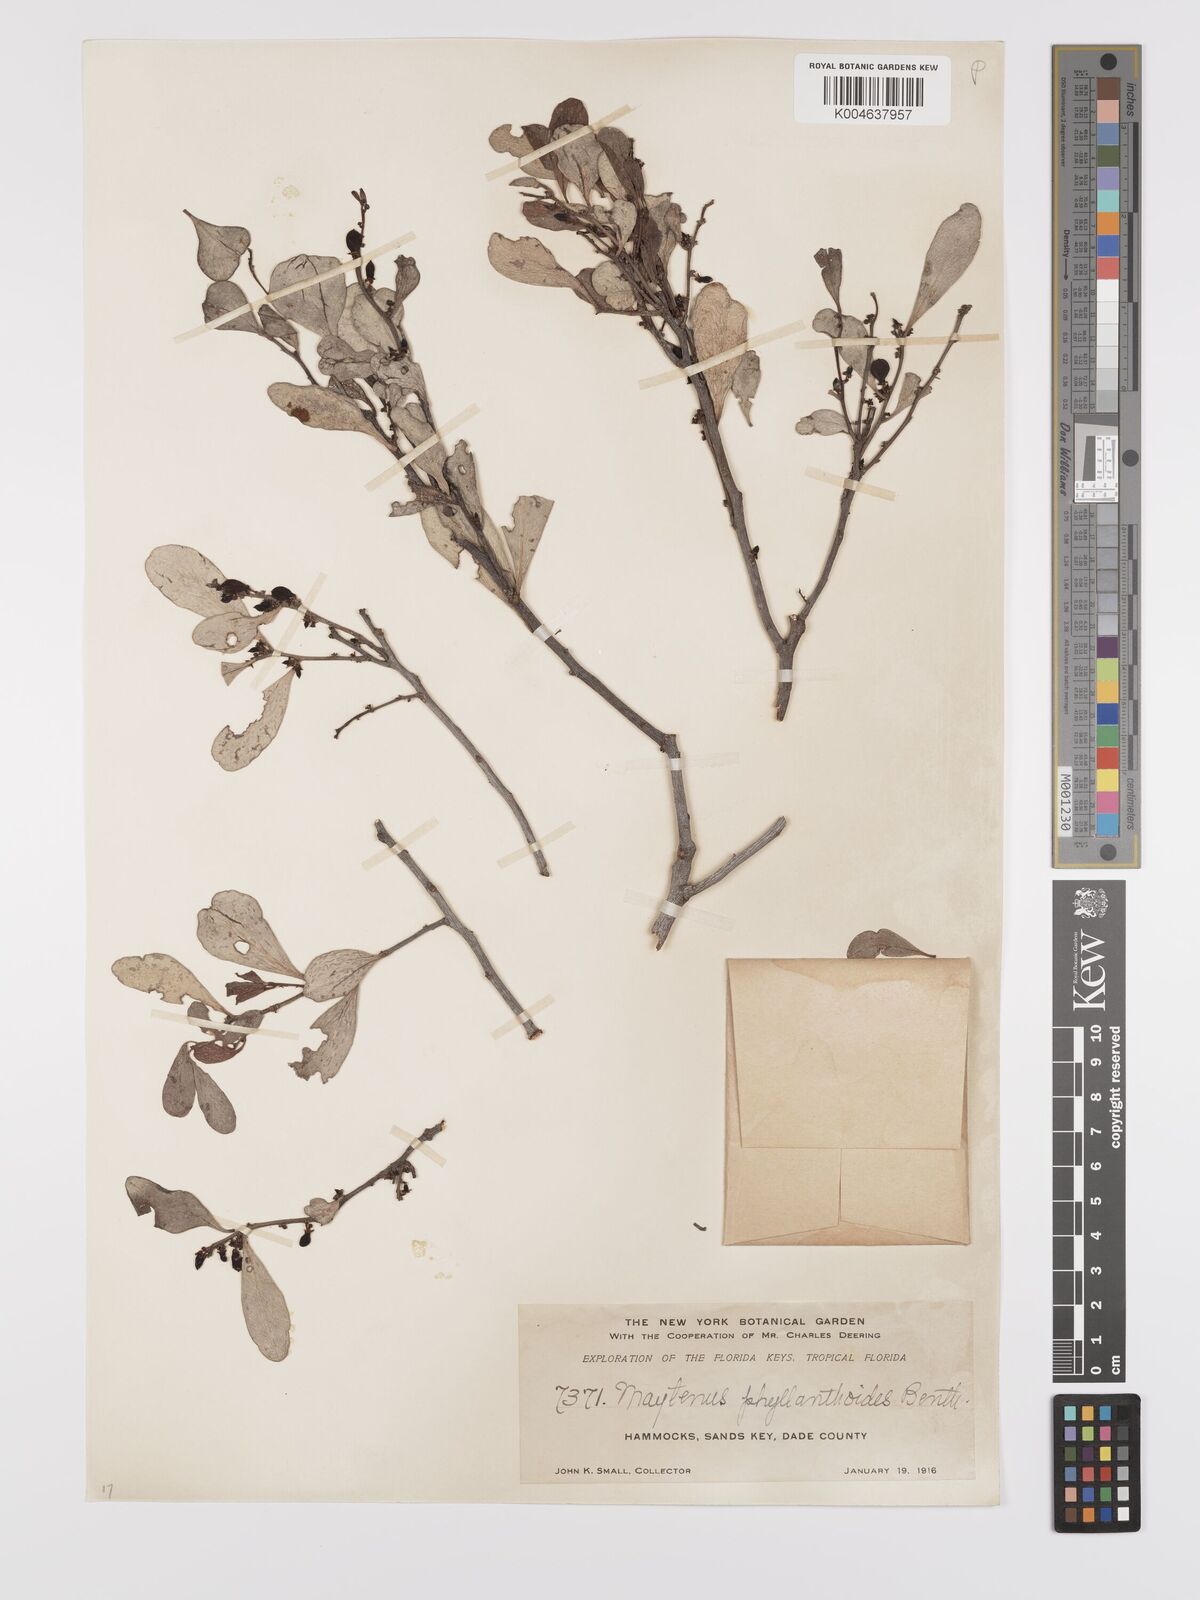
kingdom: Plantae
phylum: Tracheophyta
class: Magnoliopsida
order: Celastrales
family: Celastraceae
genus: Tricerma
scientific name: Tricerma phyllanthoides
